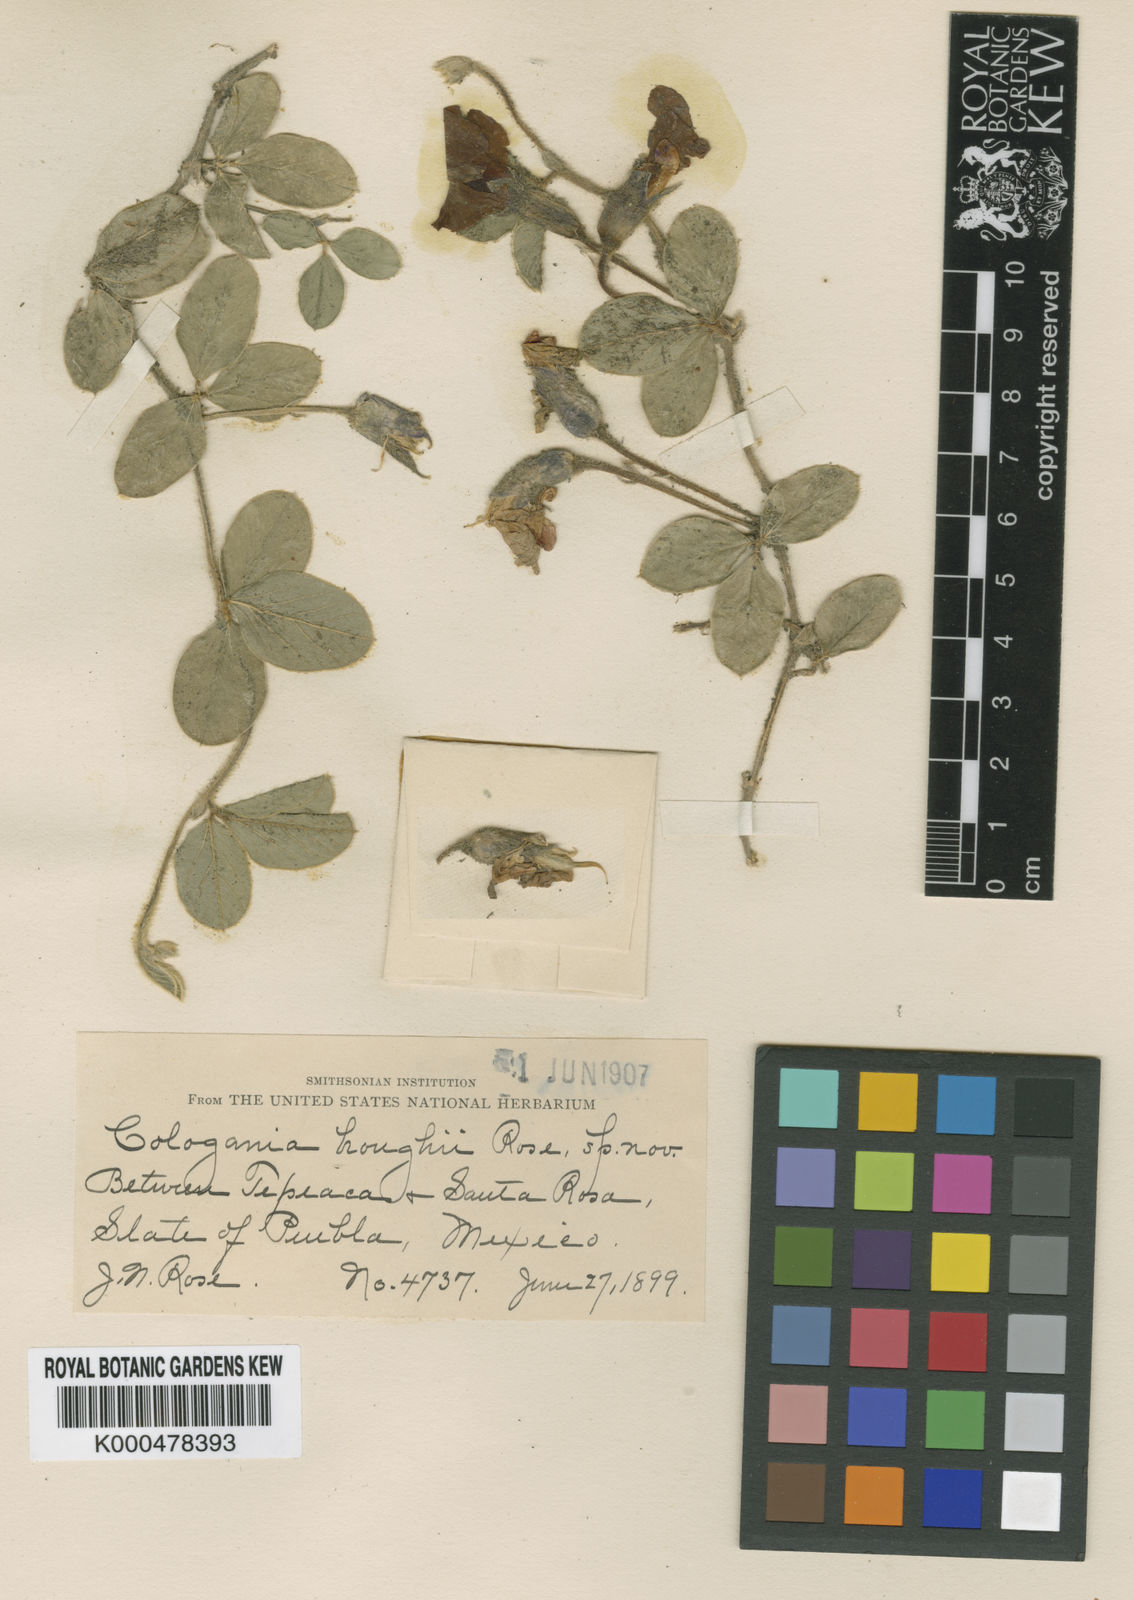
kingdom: Plantae
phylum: Tracheophyta
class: Magnoliopsida
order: Fabales
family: Fabaceae
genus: Cologania
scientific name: Cologania obovata
